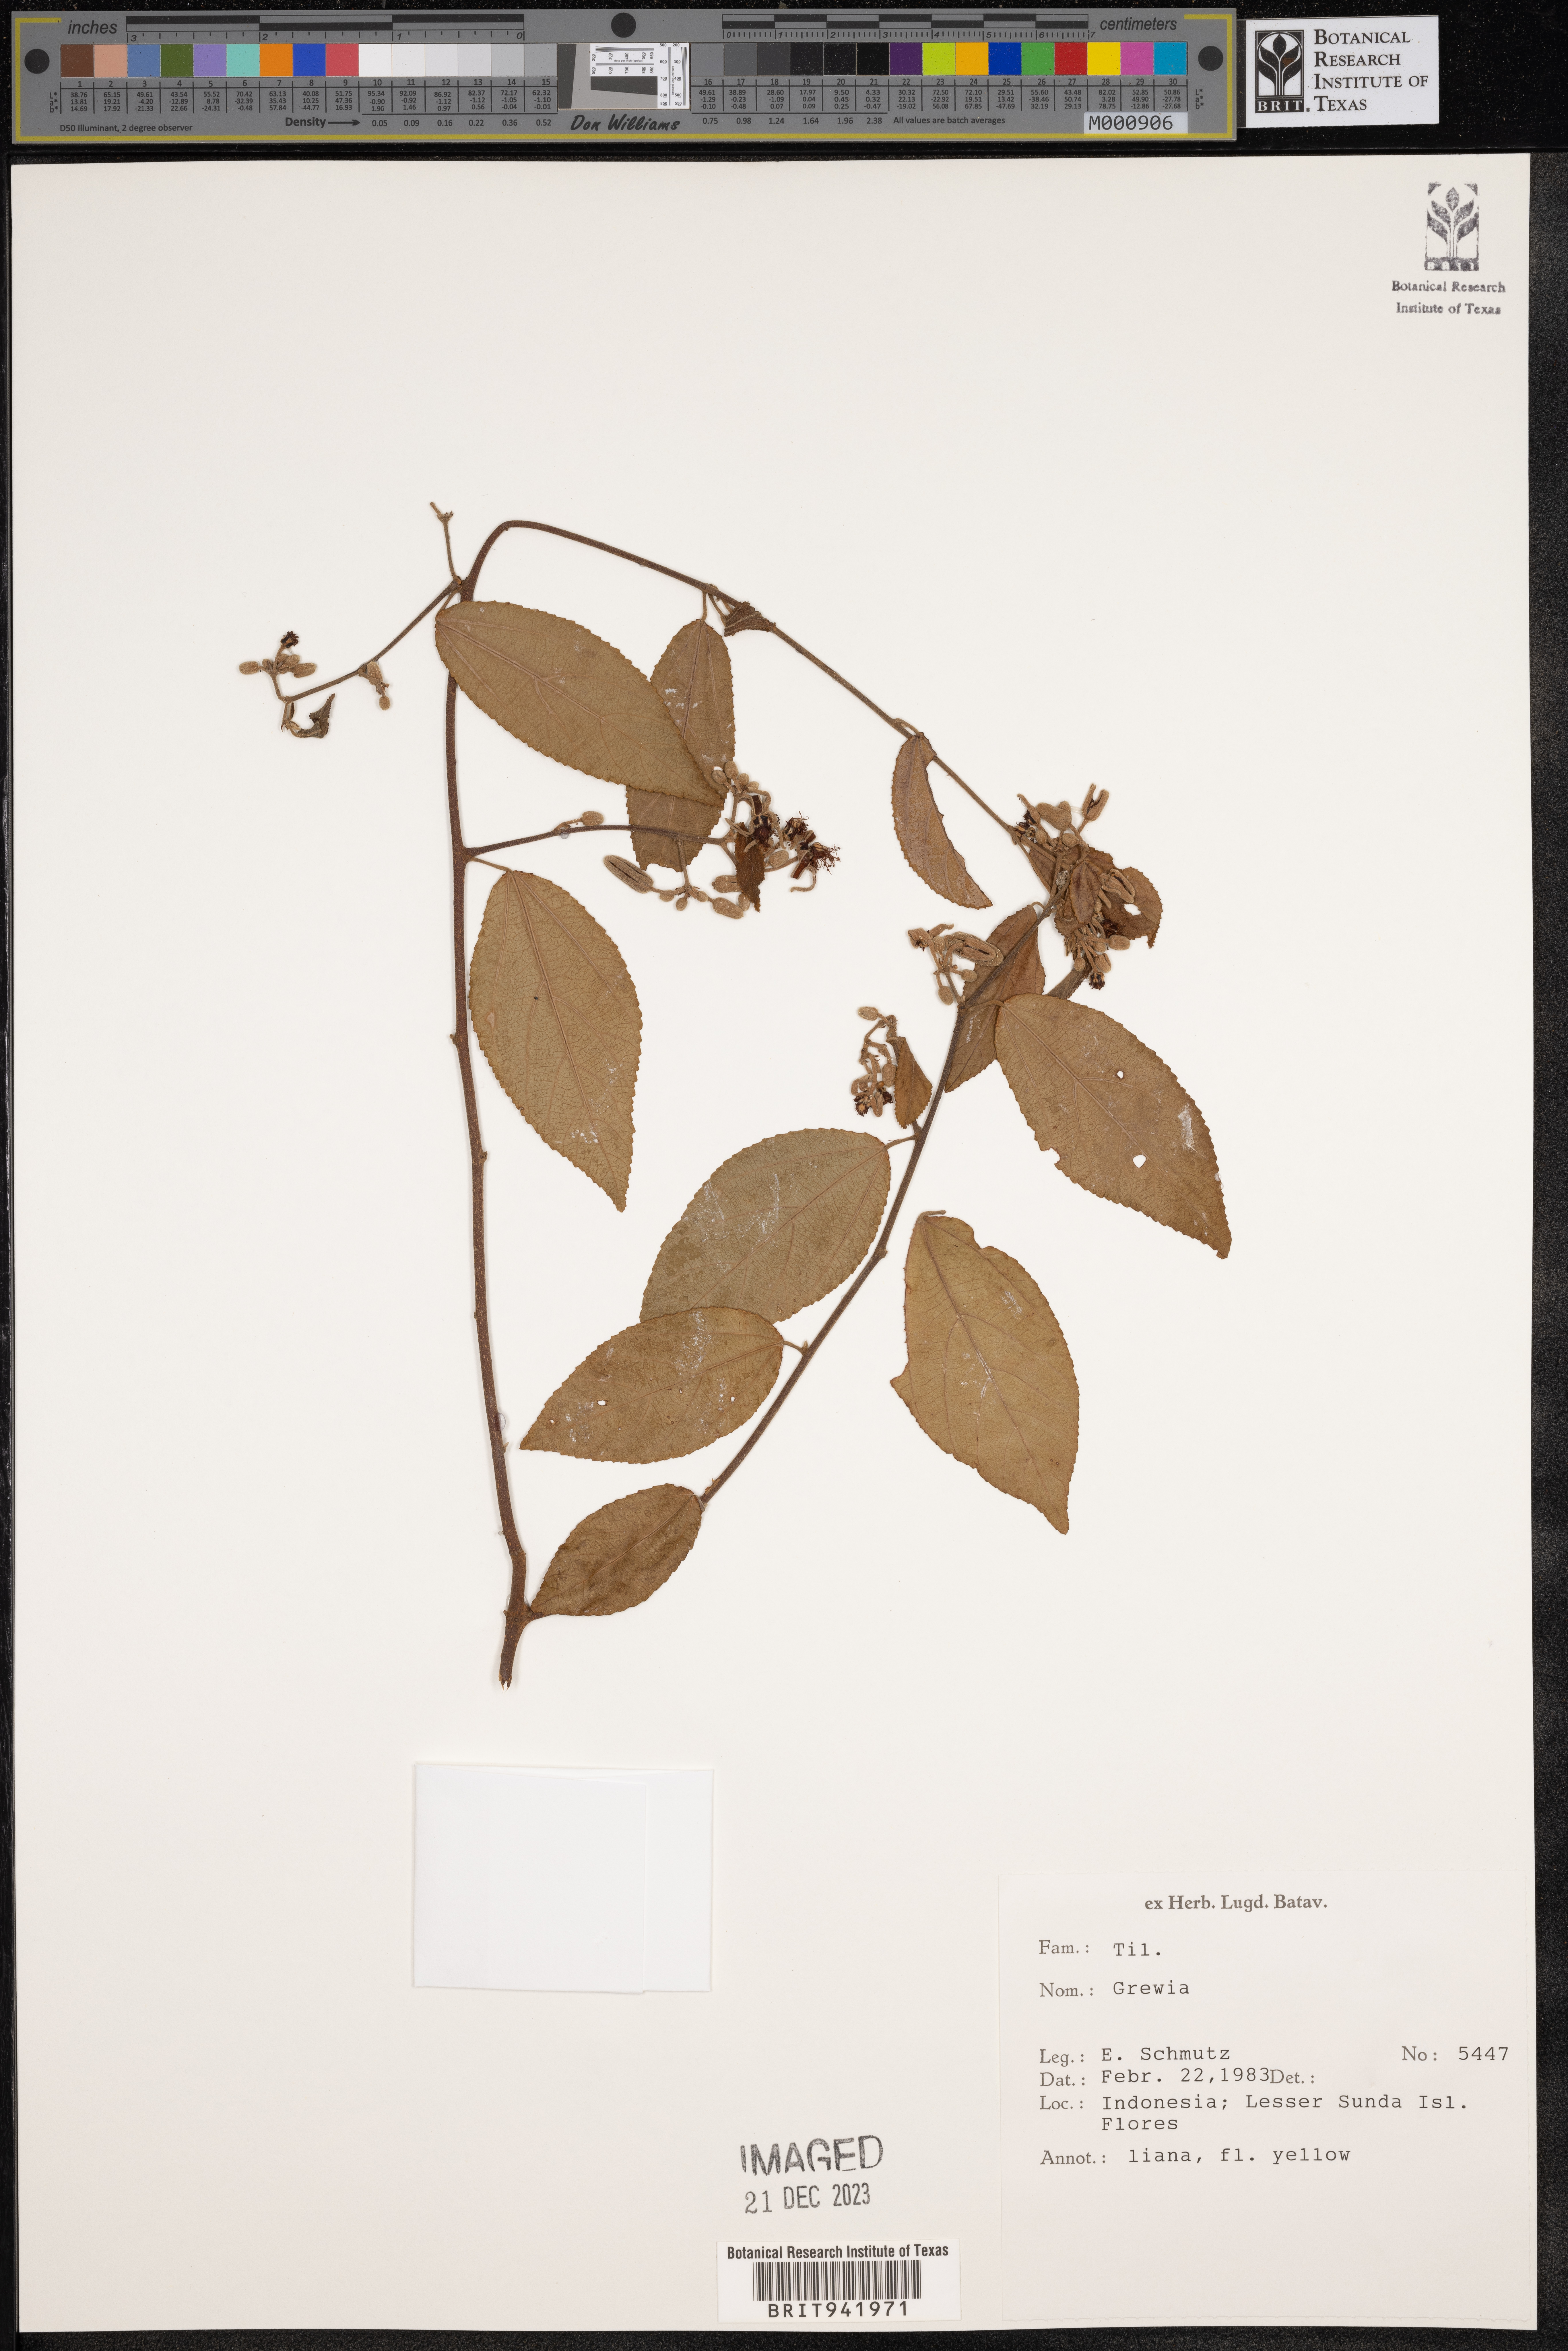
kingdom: Plantae
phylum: Tracheophyta
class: Magnoliopsida
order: Malvales
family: Malvaceae
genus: Grewia
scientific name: Grewia
